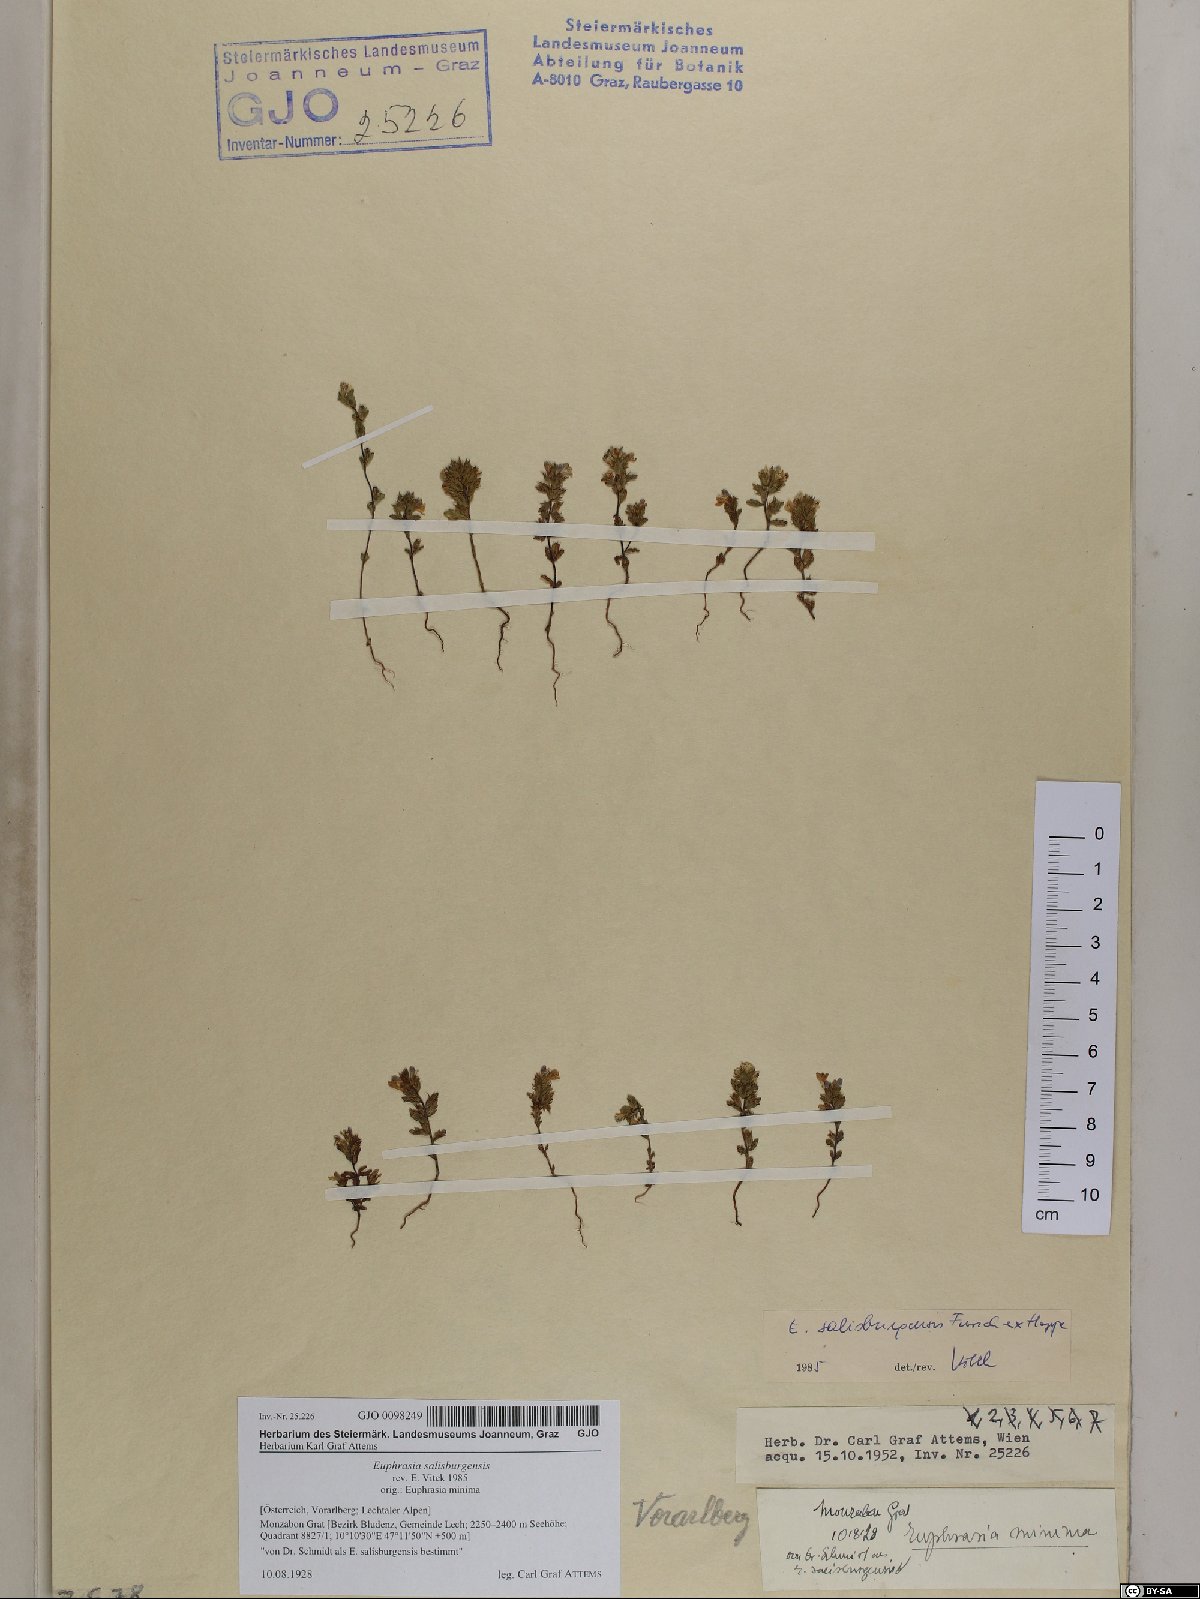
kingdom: Plantae
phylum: Tracheophyta
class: Magnoliopsida
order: Lamiales
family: Orobanchaceae
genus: Euphrasia
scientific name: Euphrasia salisburgensis
